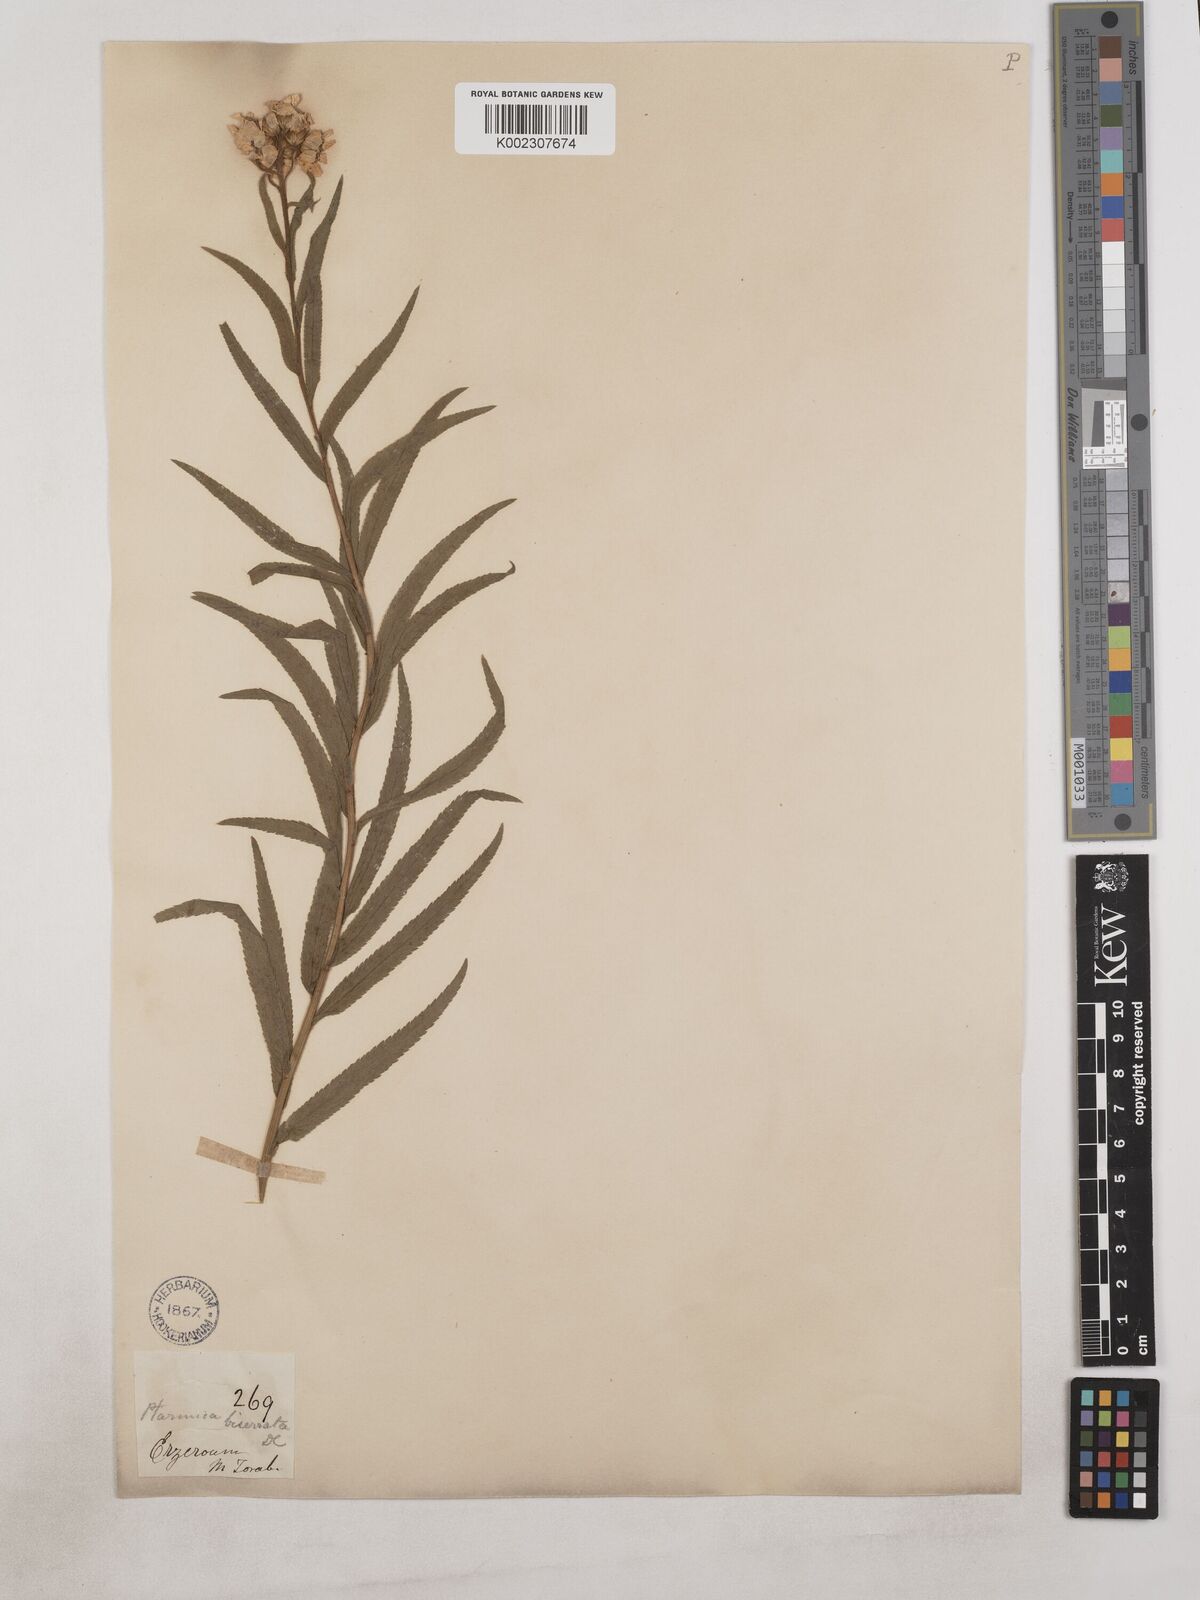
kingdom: Plantae
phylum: Tracheophyta
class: Magnoliopsida
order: Asterales
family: Asteraceae
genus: Achillea
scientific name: Achillea biserrata
